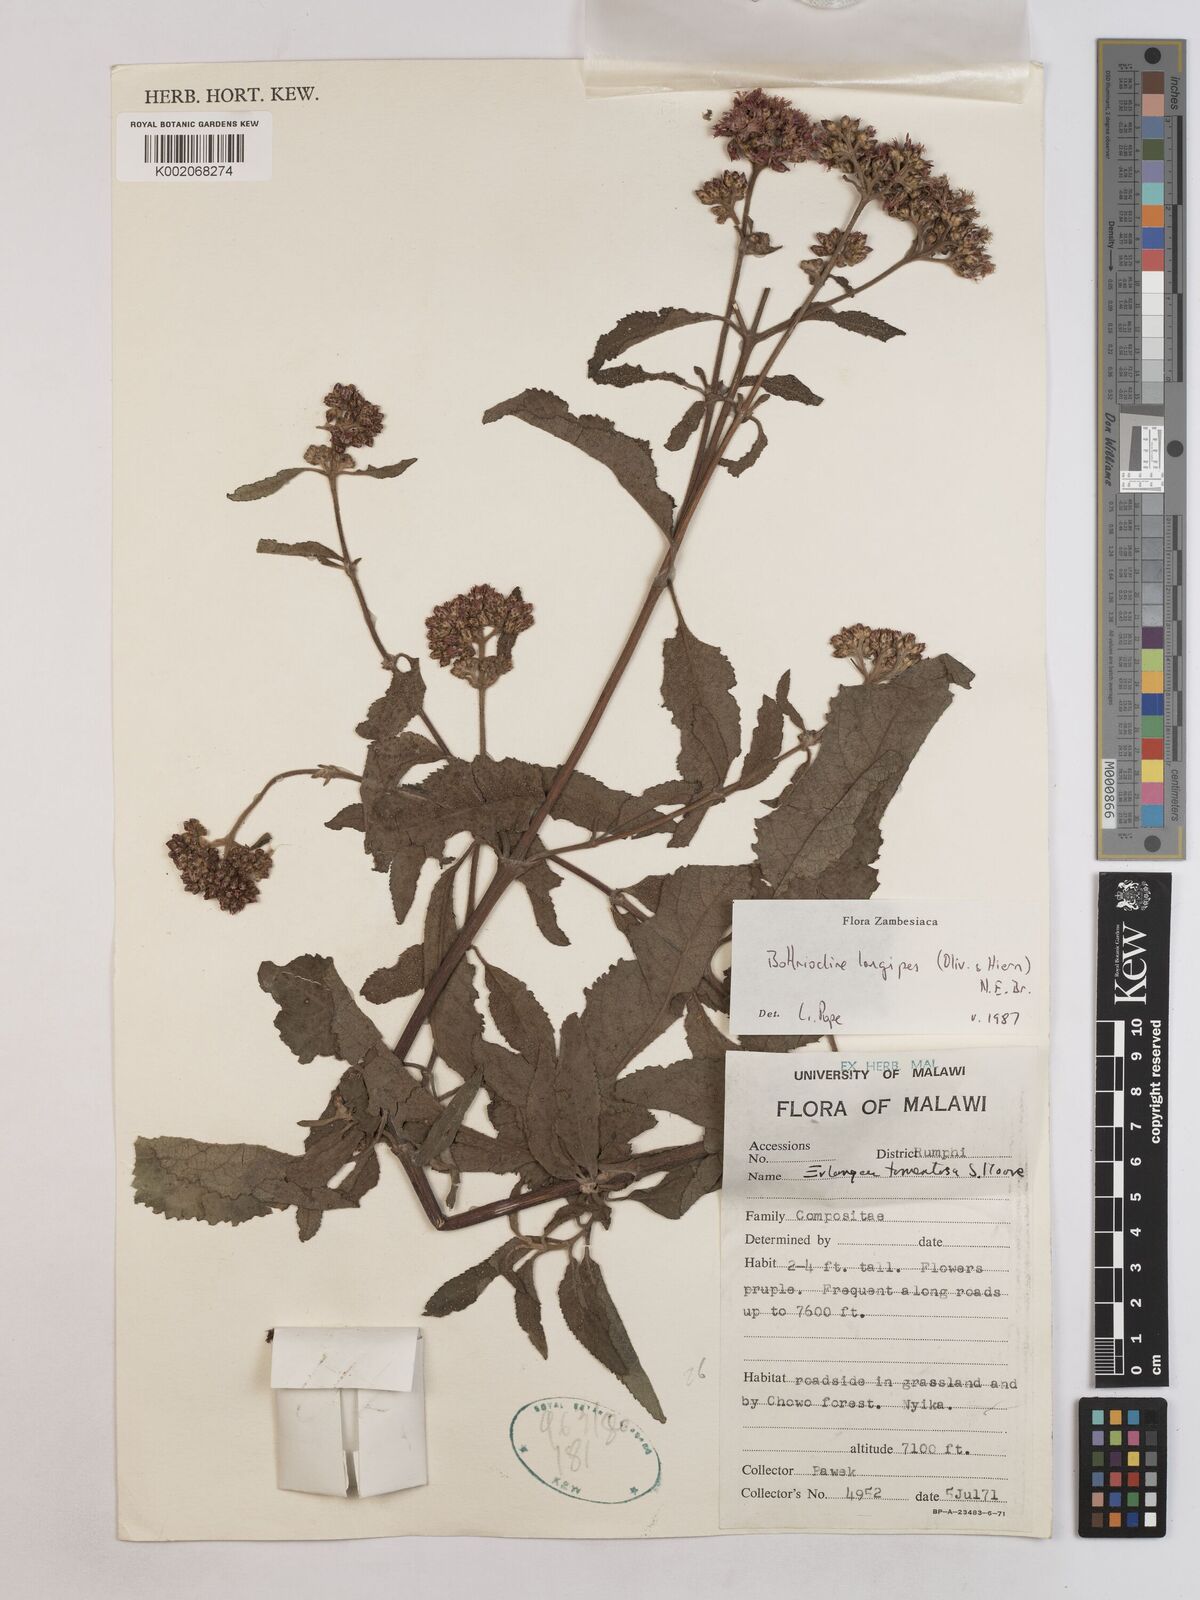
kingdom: Plantae
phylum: Tracheophyta
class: Magnoliopsida
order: Asterales
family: Asteraceae
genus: Bothriocline
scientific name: Bothriocline longipes
